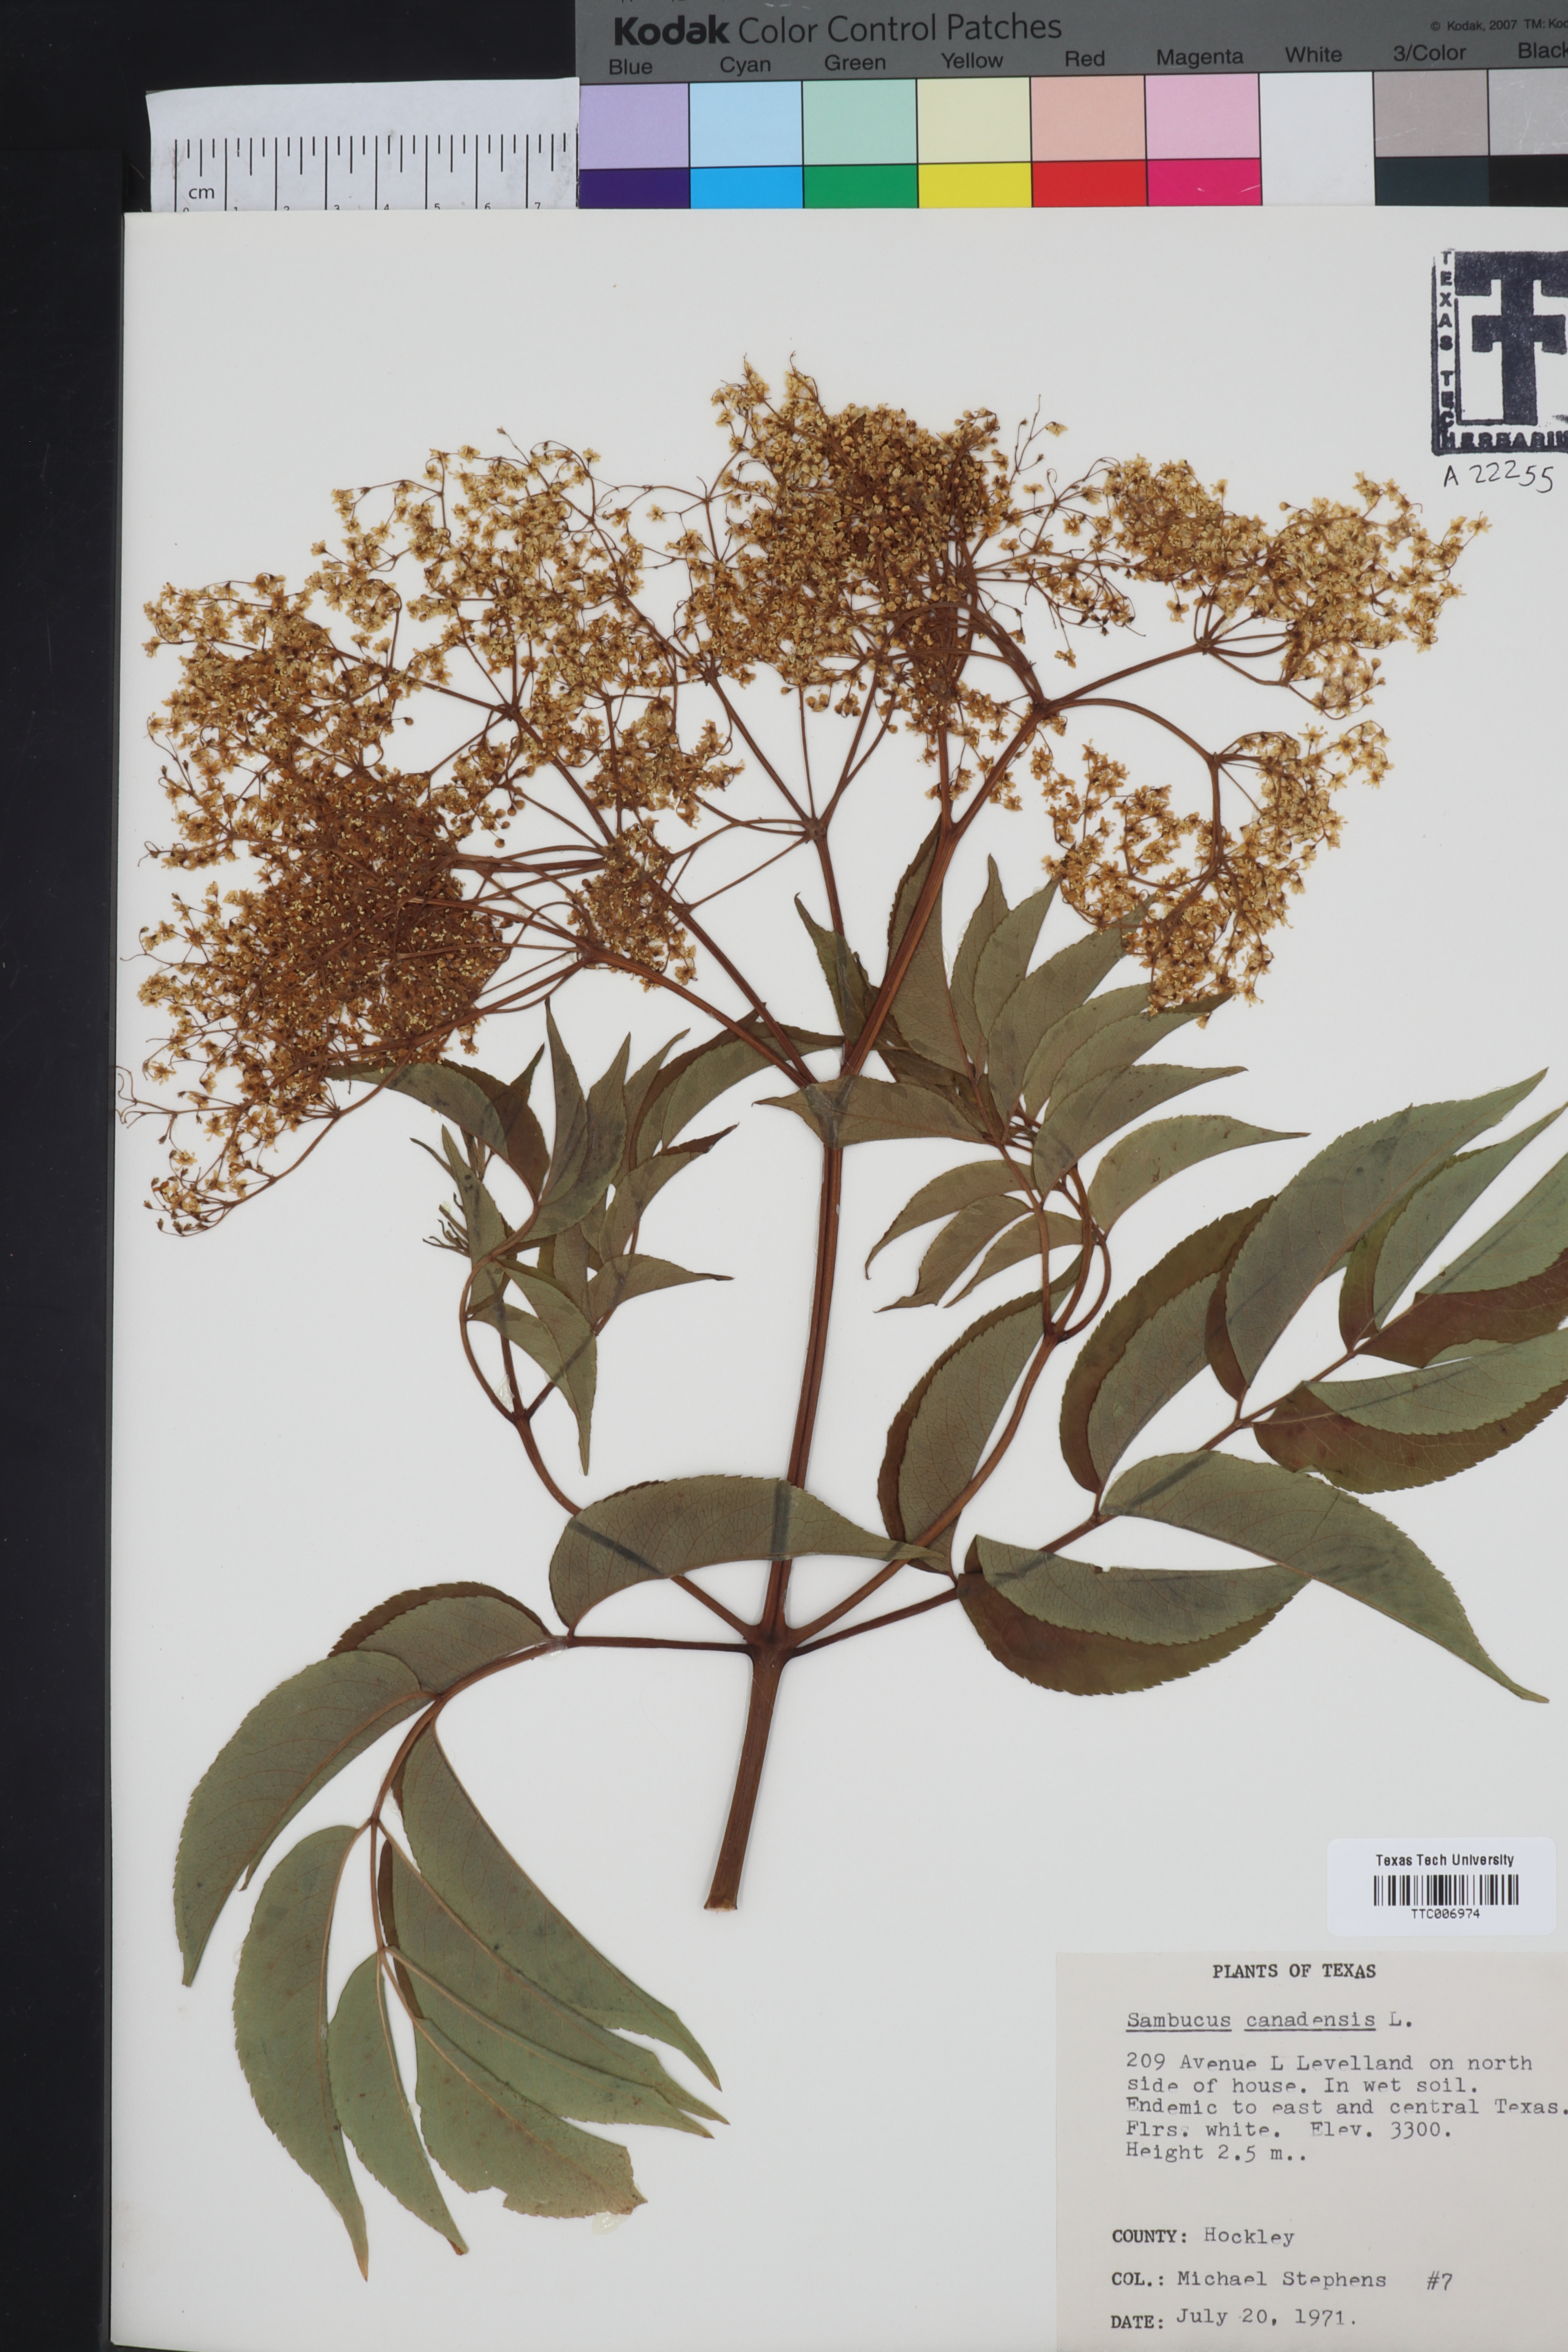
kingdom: Plantae
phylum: Tracheophyta
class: Magnoliopsida
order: Dipsacales
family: Viburnaceae
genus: Sambucus
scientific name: Sambucus canadensis
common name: American elder
